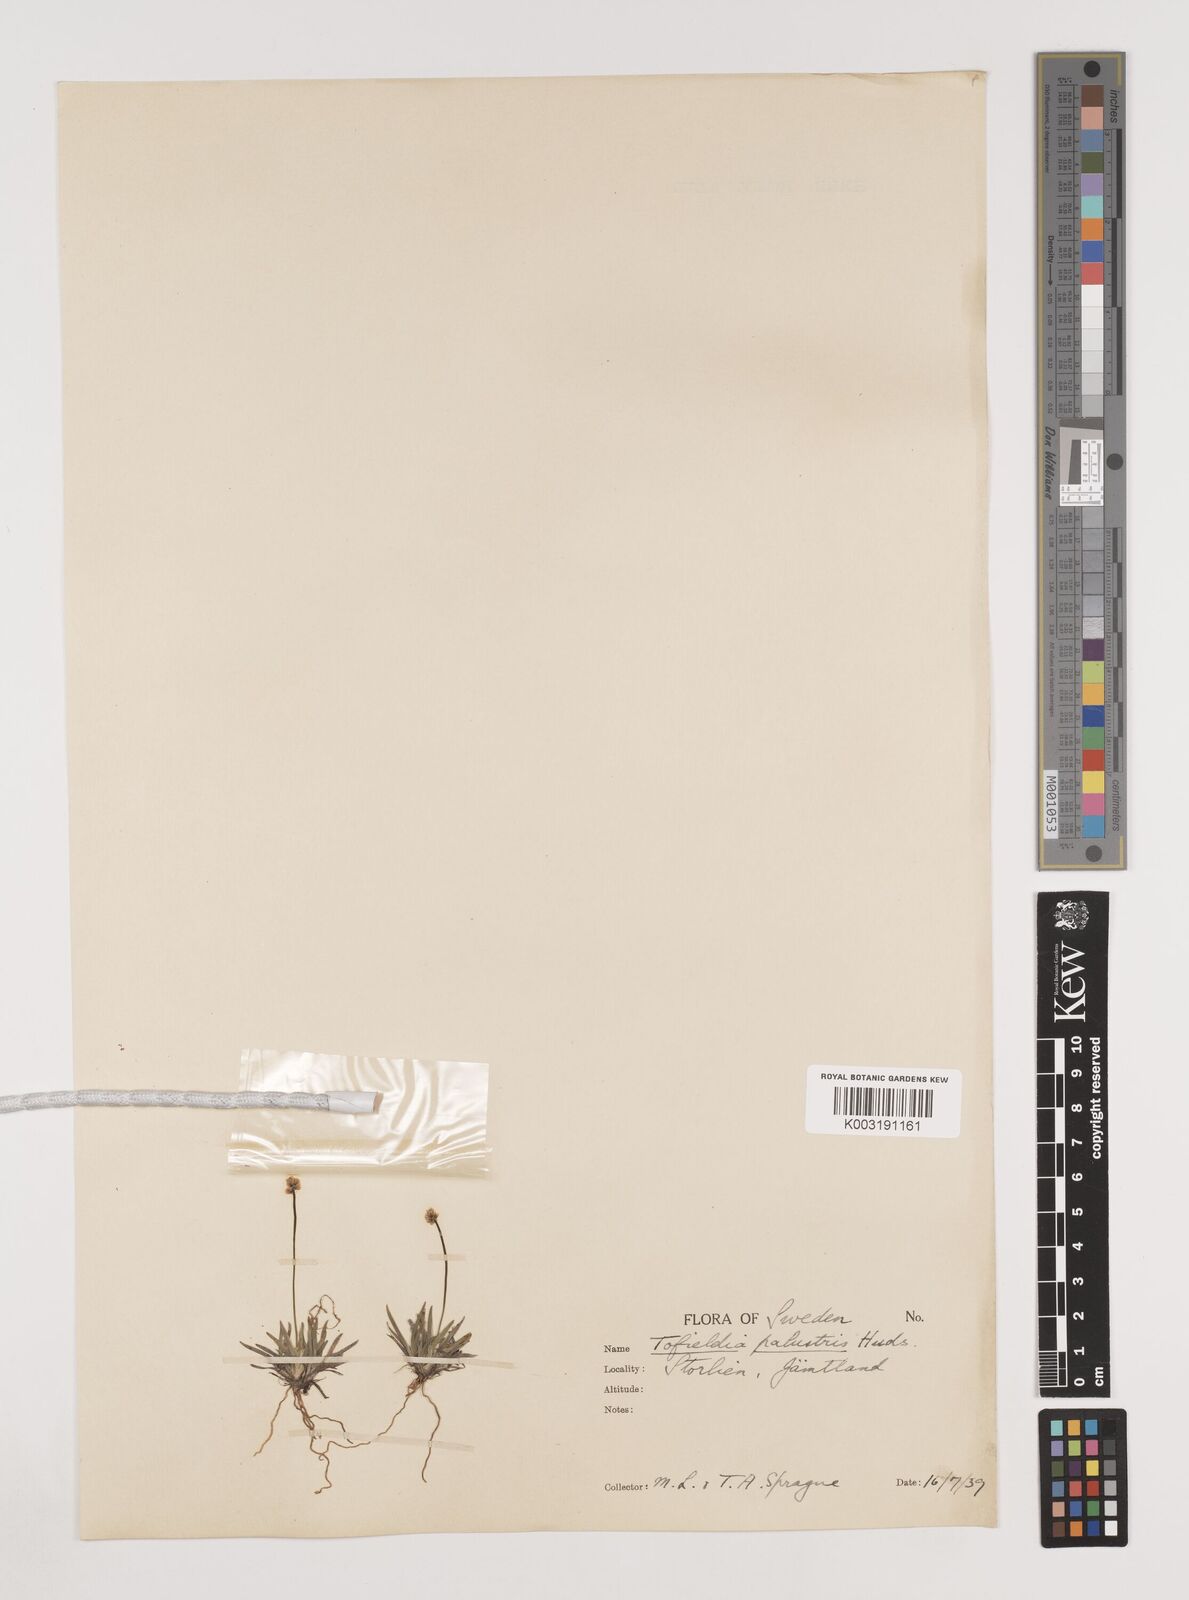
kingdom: Plantae
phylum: Tracheophyta
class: Liliopsida
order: Alismatales
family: Tofieldiaceae
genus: Tofieldia
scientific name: Tofieldia pusilla
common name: Scottish false asphodel
